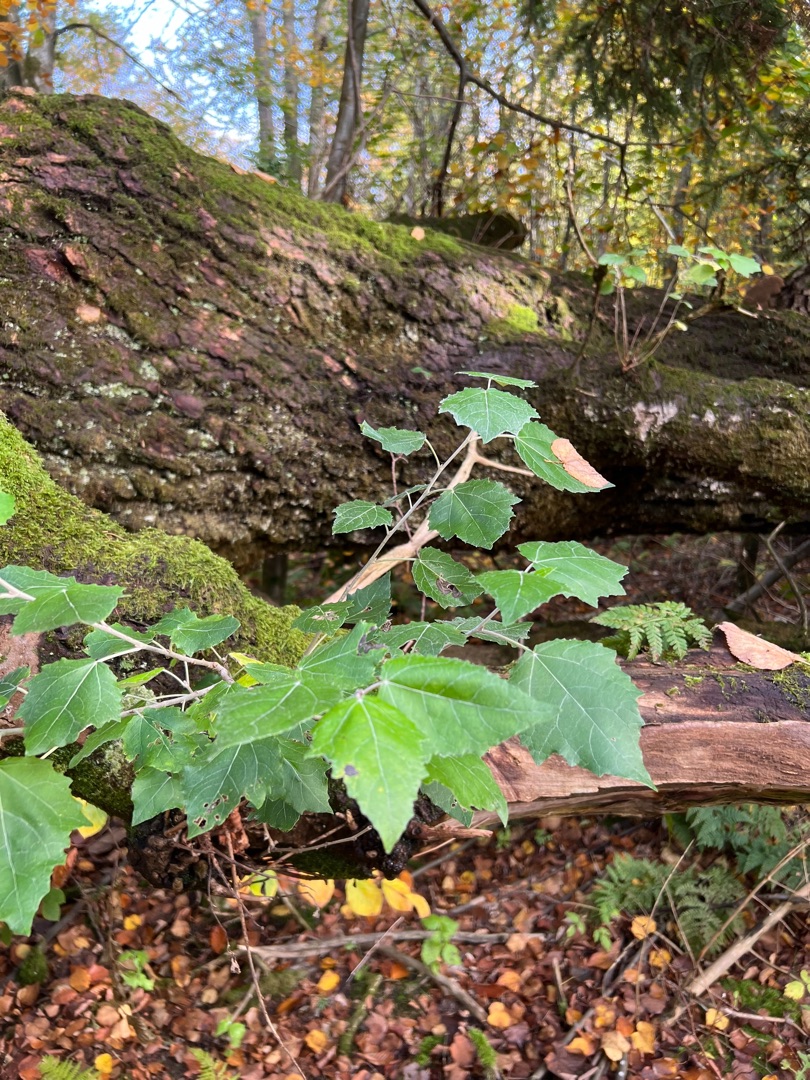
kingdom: Plantae
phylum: Tracheophyta
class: Magnoliopsida
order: Malpighiales
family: Salicaceae
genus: Populus
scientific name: Populus alba
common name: Sølv-poppel
